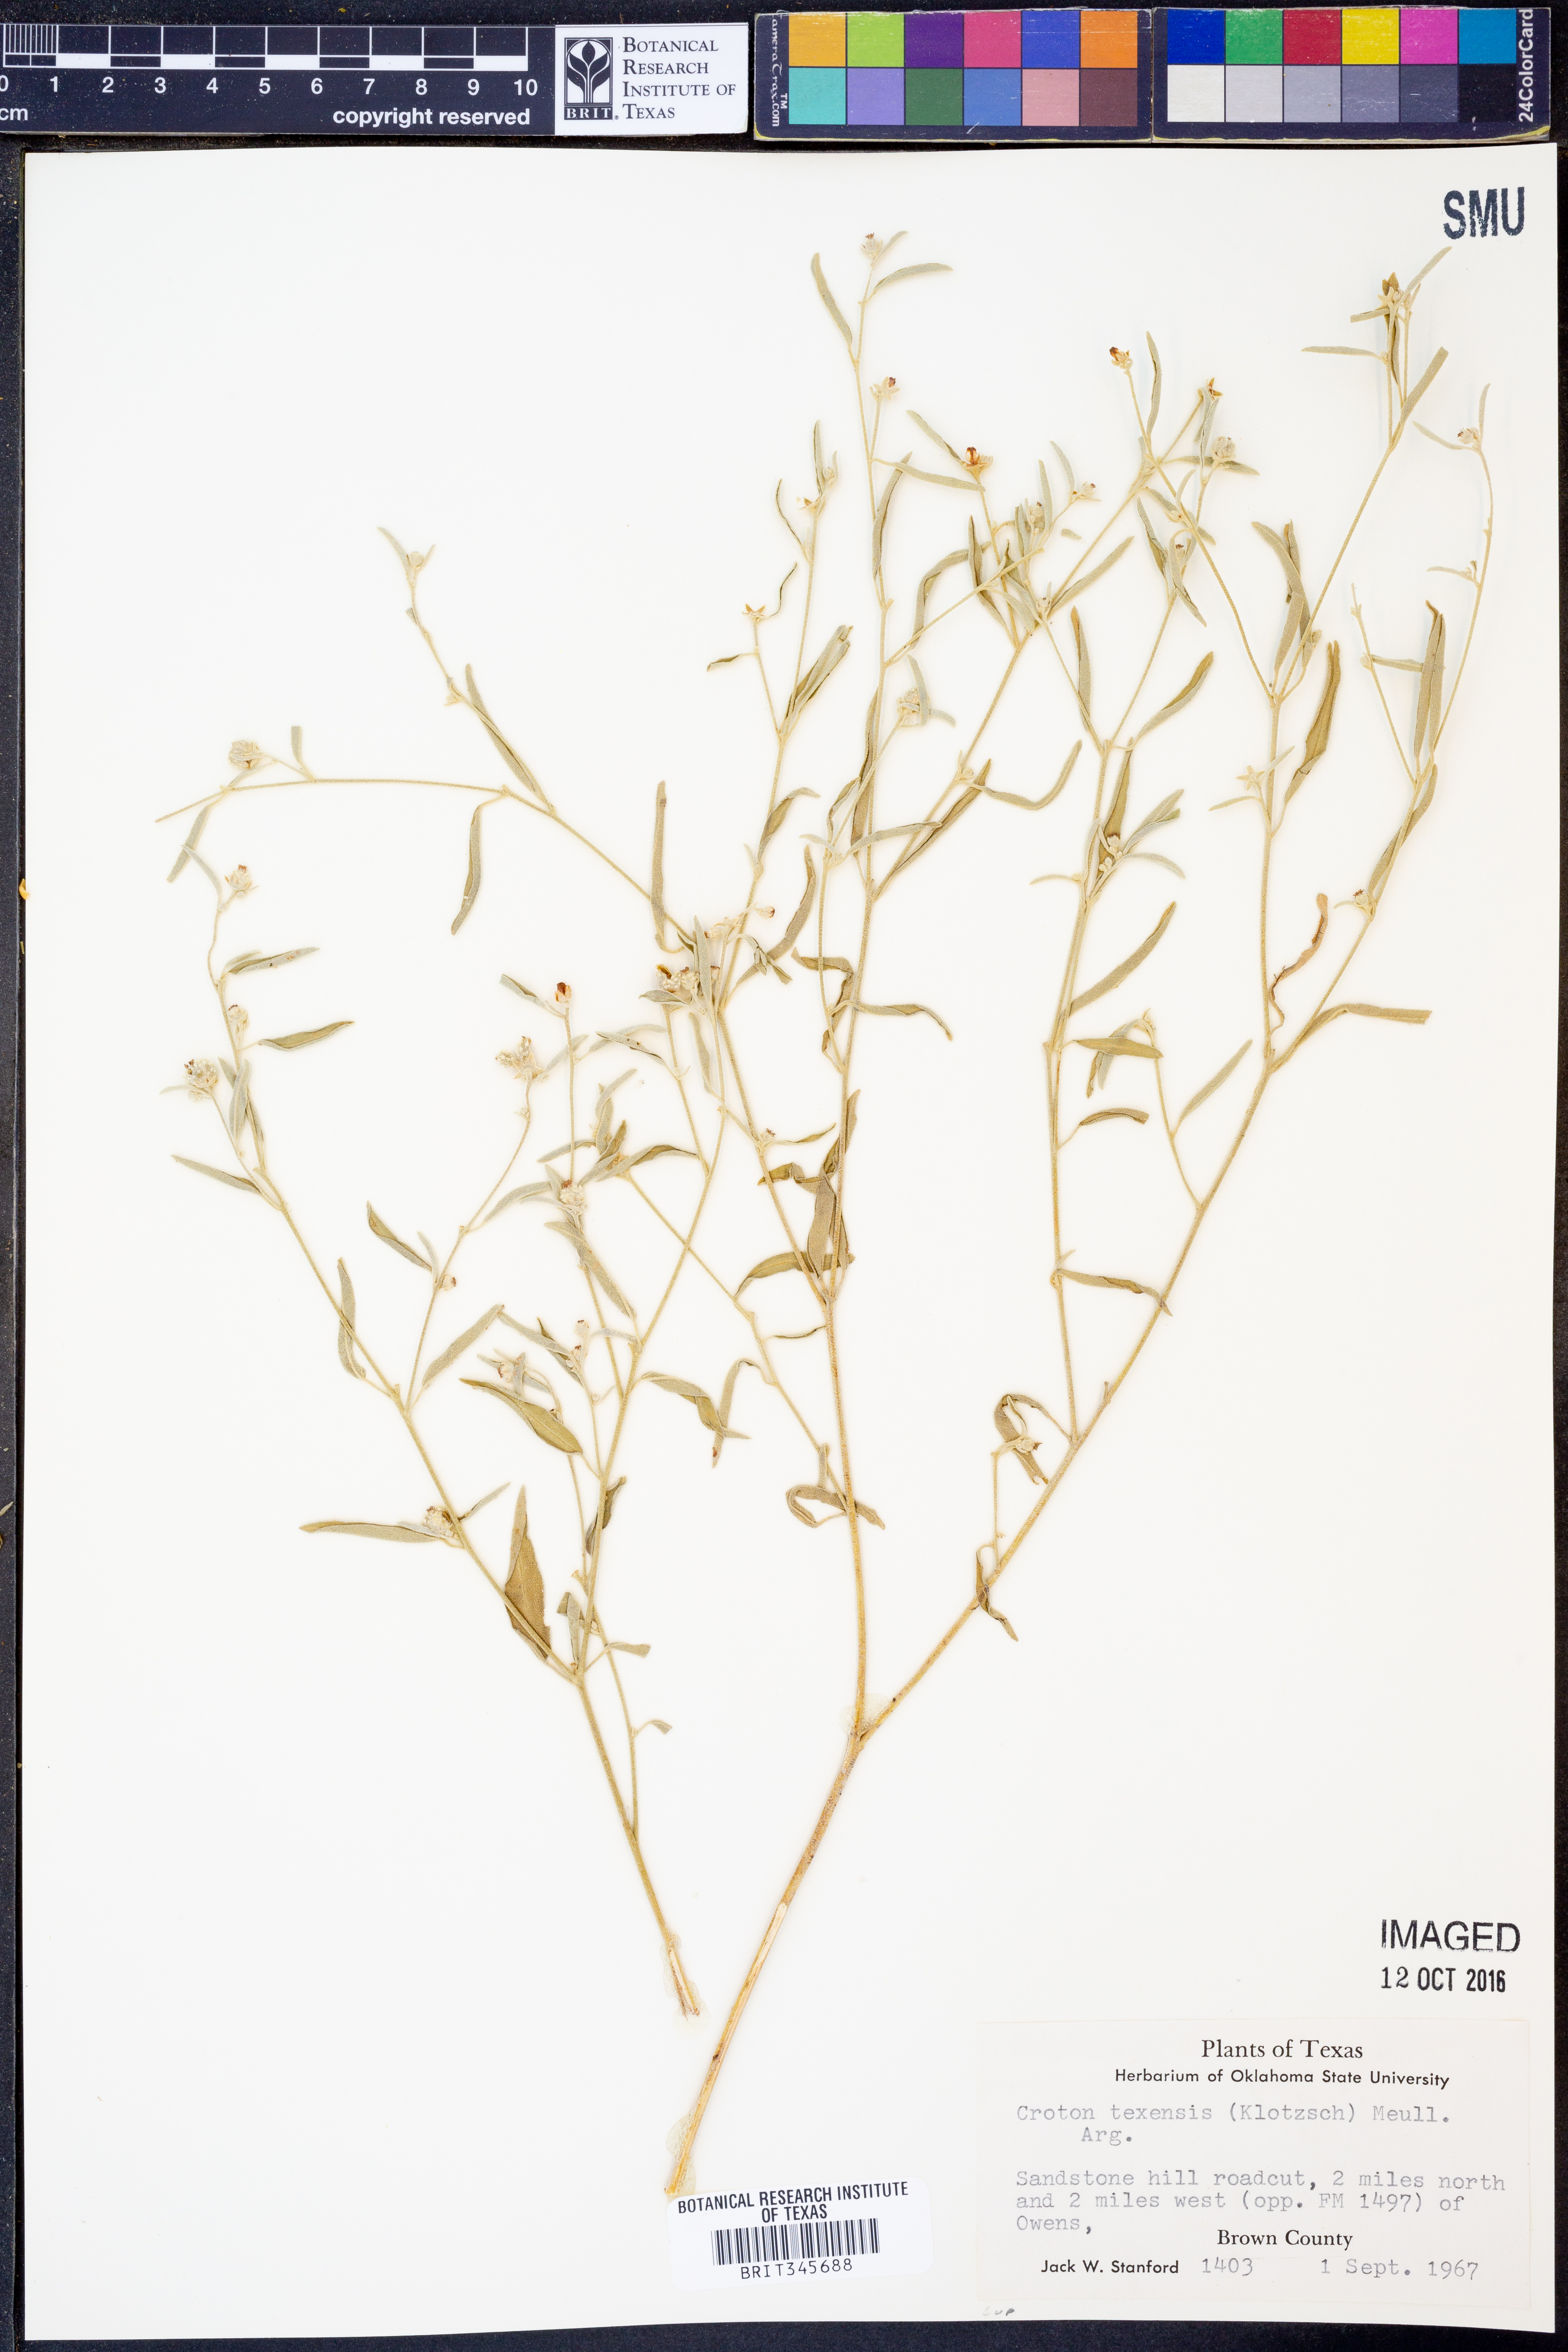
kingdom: Plantae
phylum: Tracheophyta
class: Magnoliopsida
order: Malpighiales
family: Euphorbiaceae
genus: Croton
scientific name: Croton texensis
